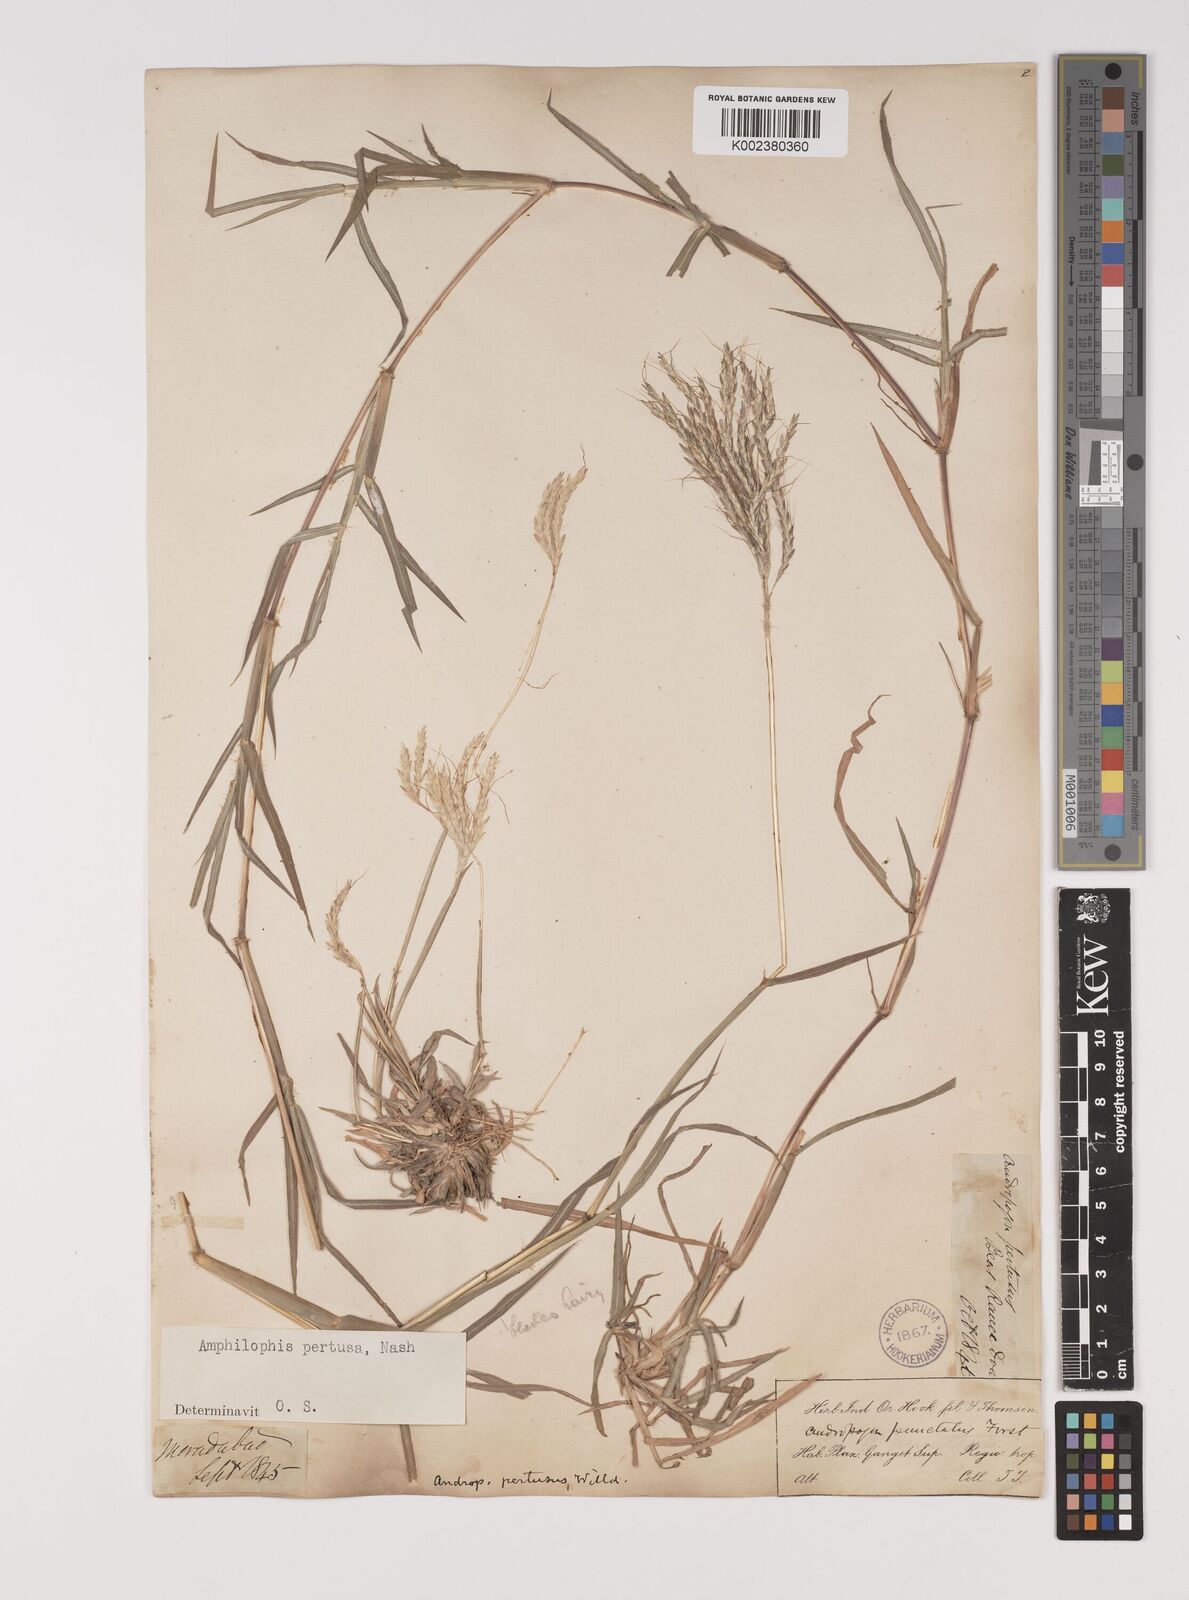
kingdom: Plantae
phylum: Tracheophyta
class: Liliopsida
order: Poales
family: Poaceae
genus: Bothriochloa
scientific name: Bothriochloa pertusa
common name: Pitted beardgrass
